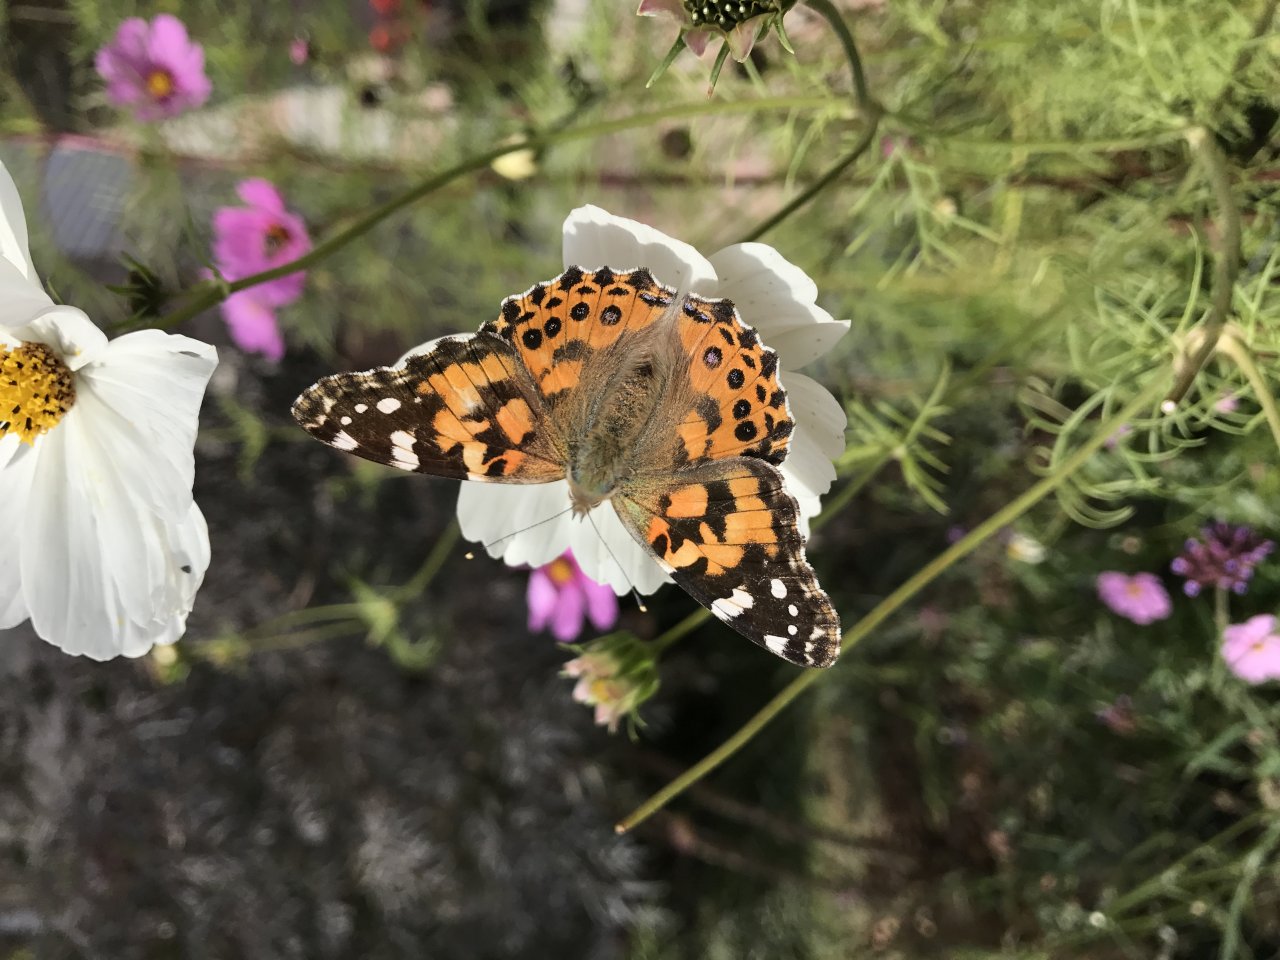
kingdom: Animalia
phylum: Arthropoda
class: Insecta
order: Lepidoptera
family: Nymphalidae
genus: Vanessa
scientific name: Vanessa cardui
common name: Painted Lady
